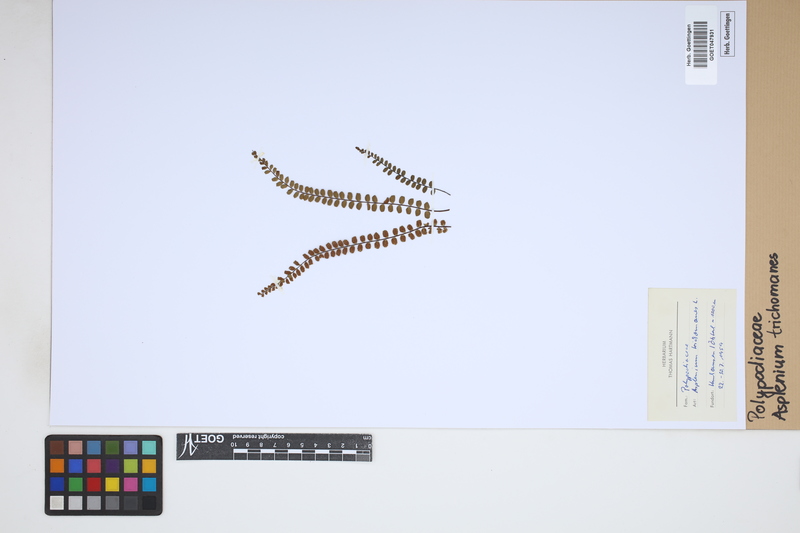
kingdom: Plantae
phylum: Tracheophyta
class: Polypodiopsida
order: Polypodiales
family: Aspleniaceae
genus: Asplenium
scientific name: Asplenium trichomanes
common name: Maidenhair spleenwort
